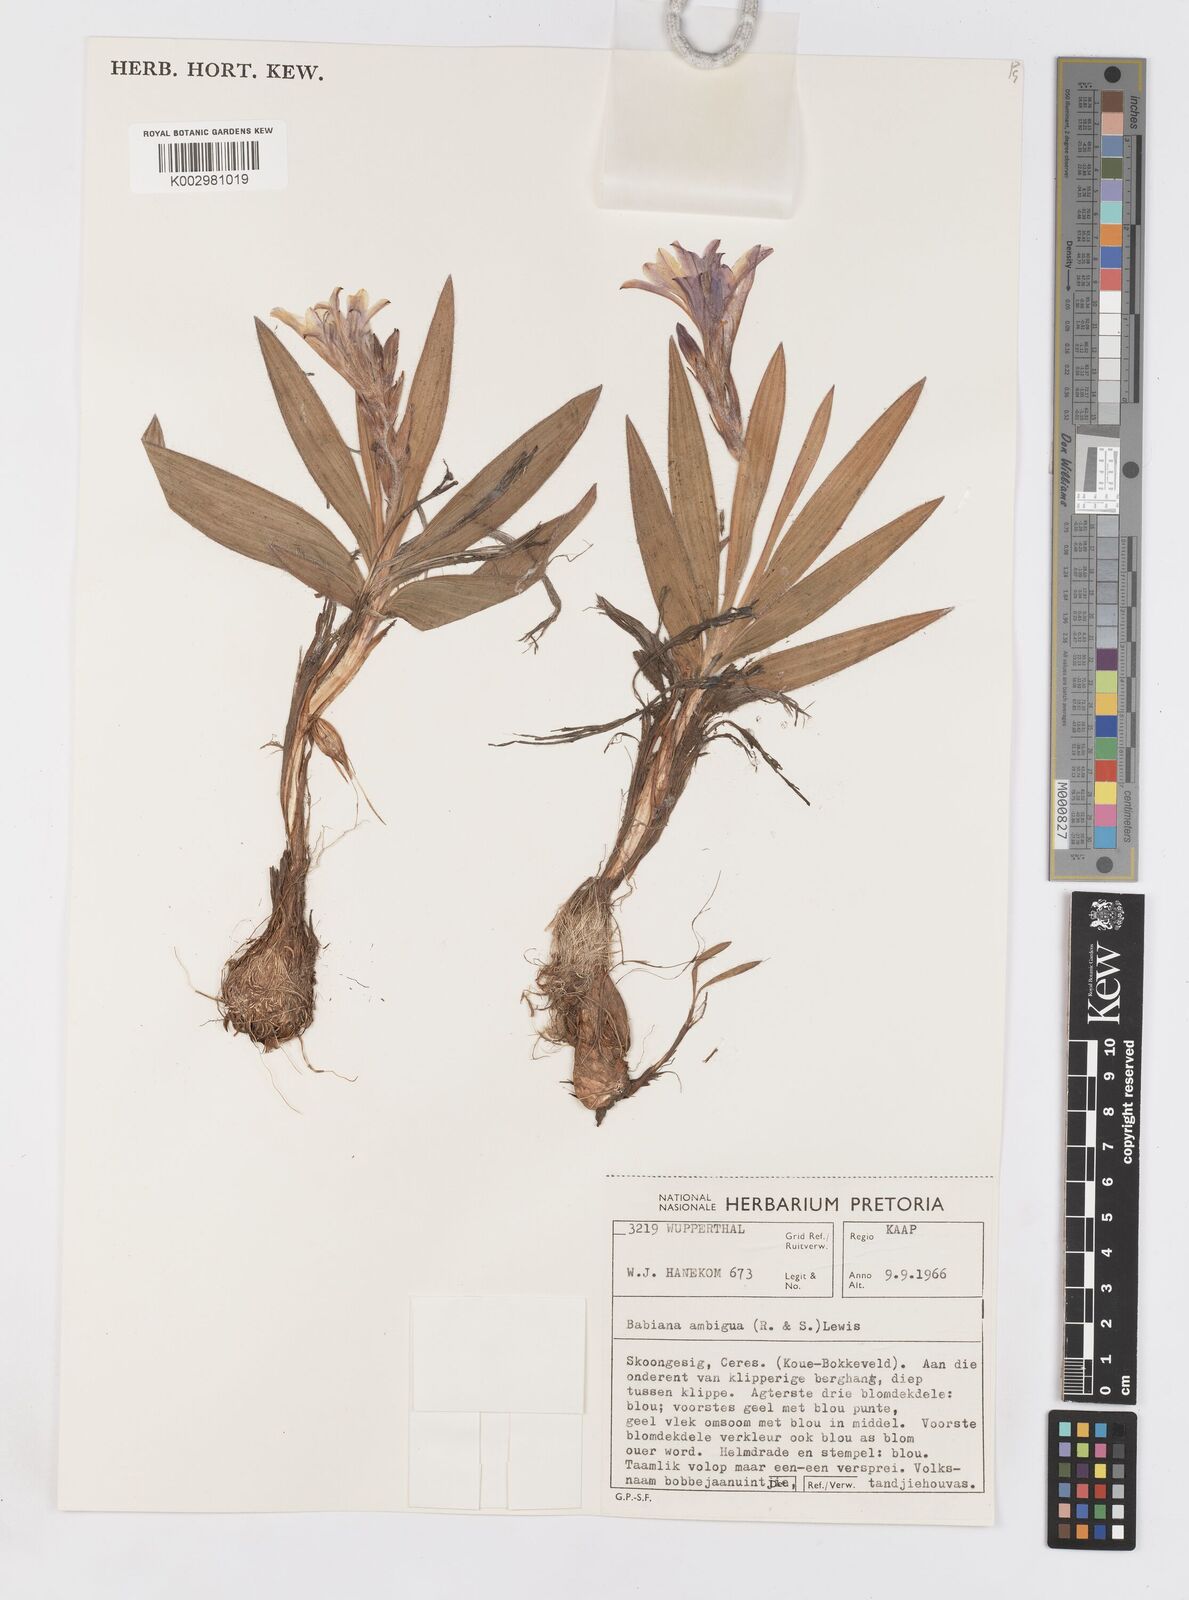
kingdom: Plantae
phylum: Tracheophyta
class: Liliopsida
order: Asparagales
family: Iridaceae
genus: Babiana
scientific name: Babiana ambigua
